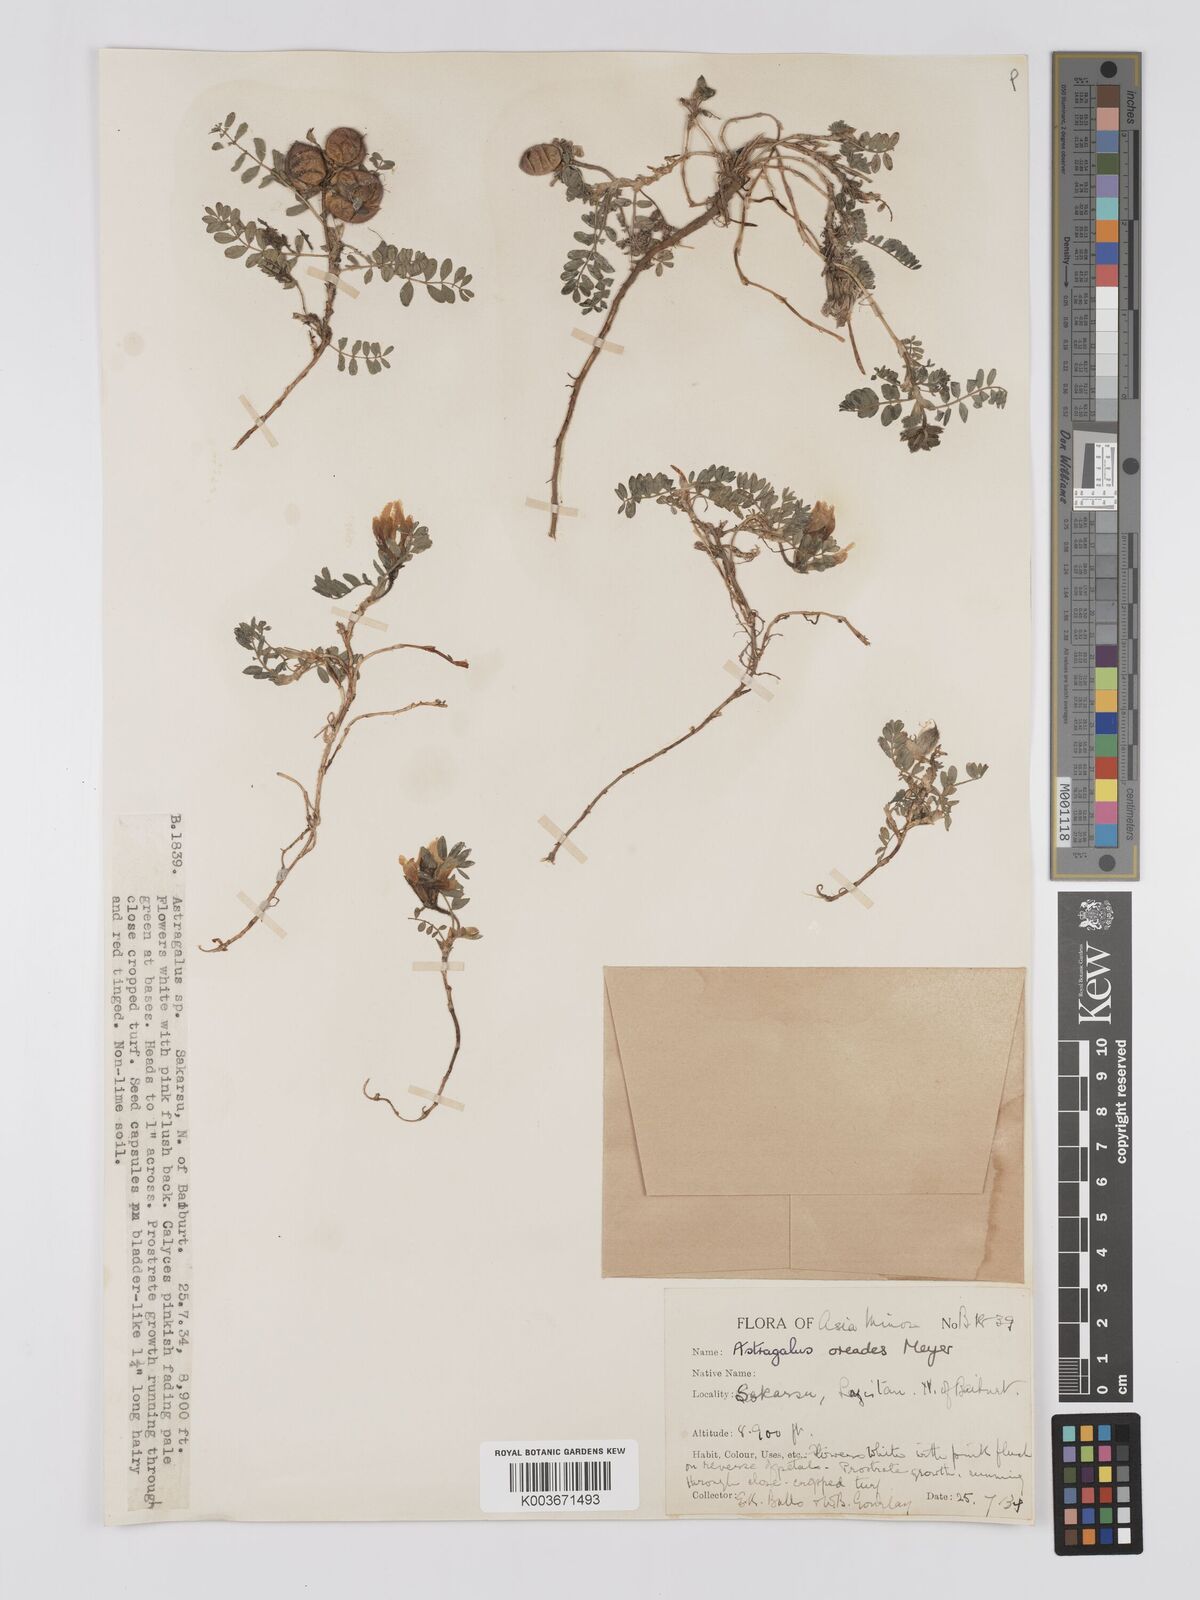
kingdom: Plantae
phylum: Tracheophyta
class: Magnoliopsida
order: Fabales
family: Fabaceae
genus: Astragalus
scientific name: Astragalus oreades
